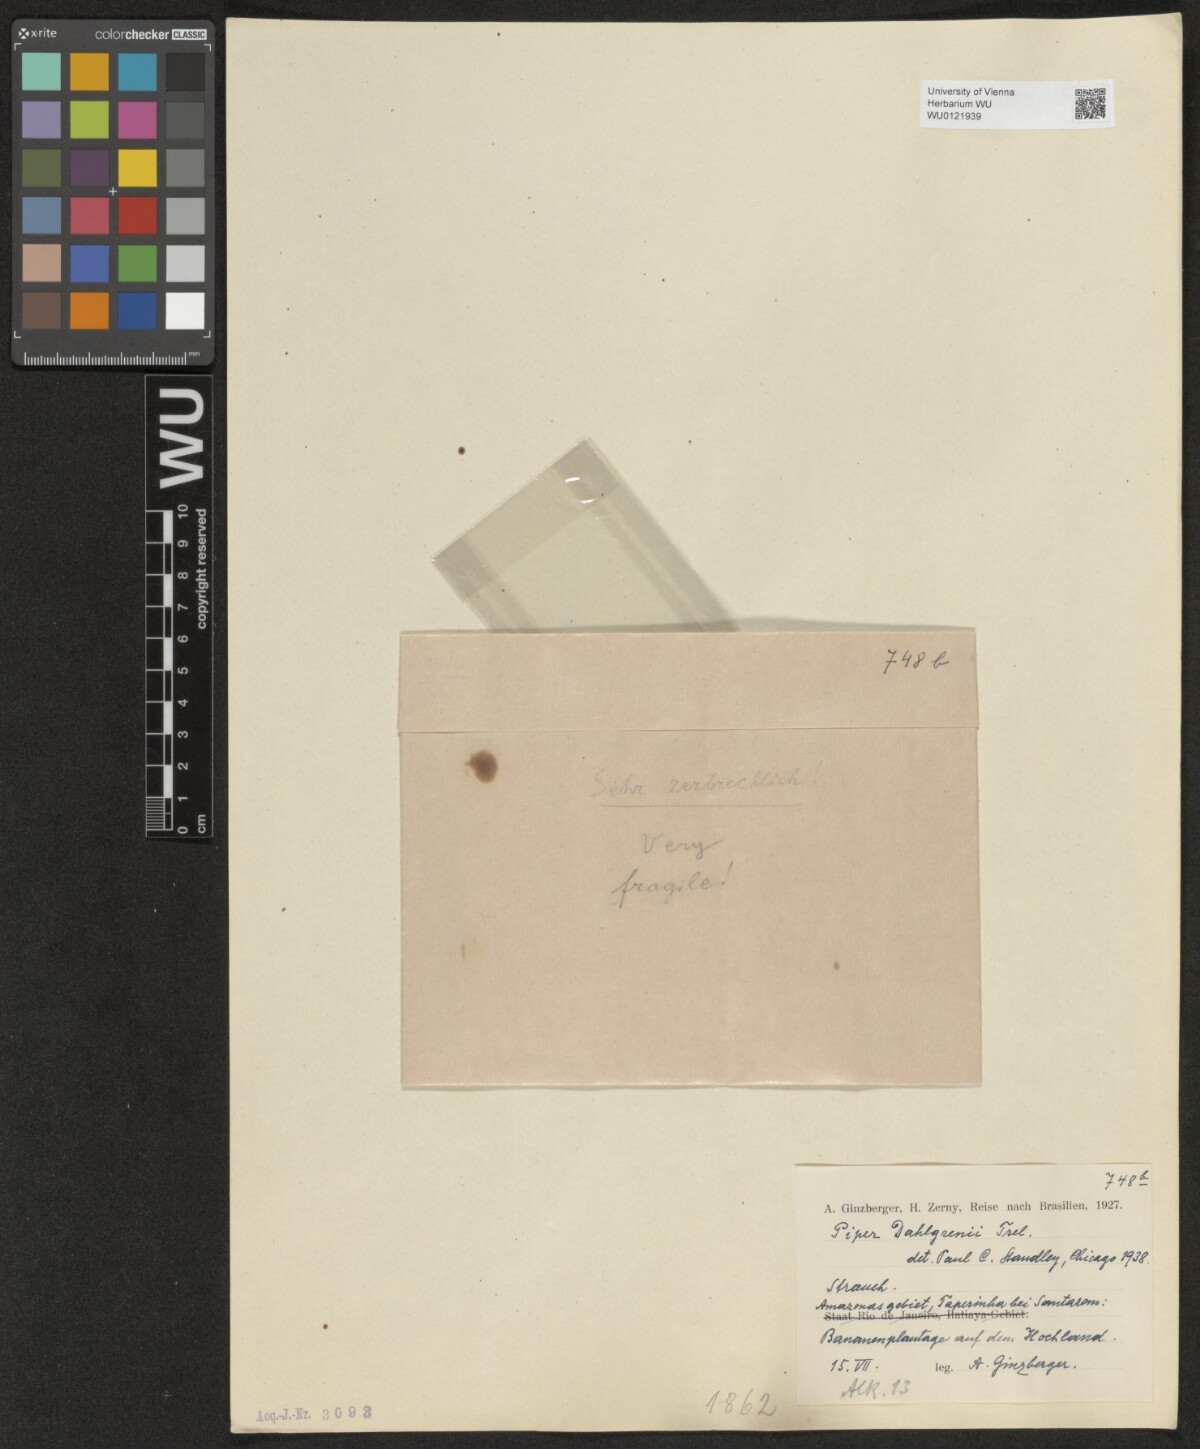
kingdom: Plantae
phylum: Tracheophyta
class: Magnoliopsida
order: Piperales
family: Piperaceae
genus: Piper
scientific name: Piper
